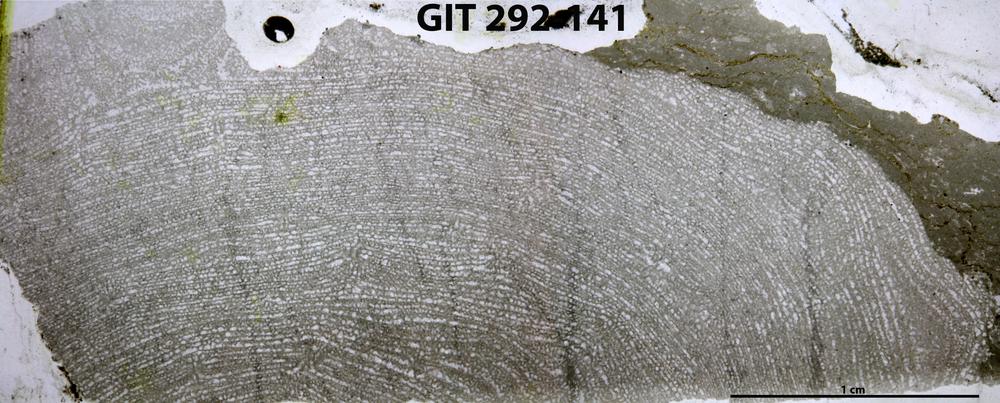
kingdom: Animalia
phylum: Porifera
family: Clathrodictyidae
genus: Clathrodictyon
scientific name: Clathrodictyon Stromatopora variolaris
